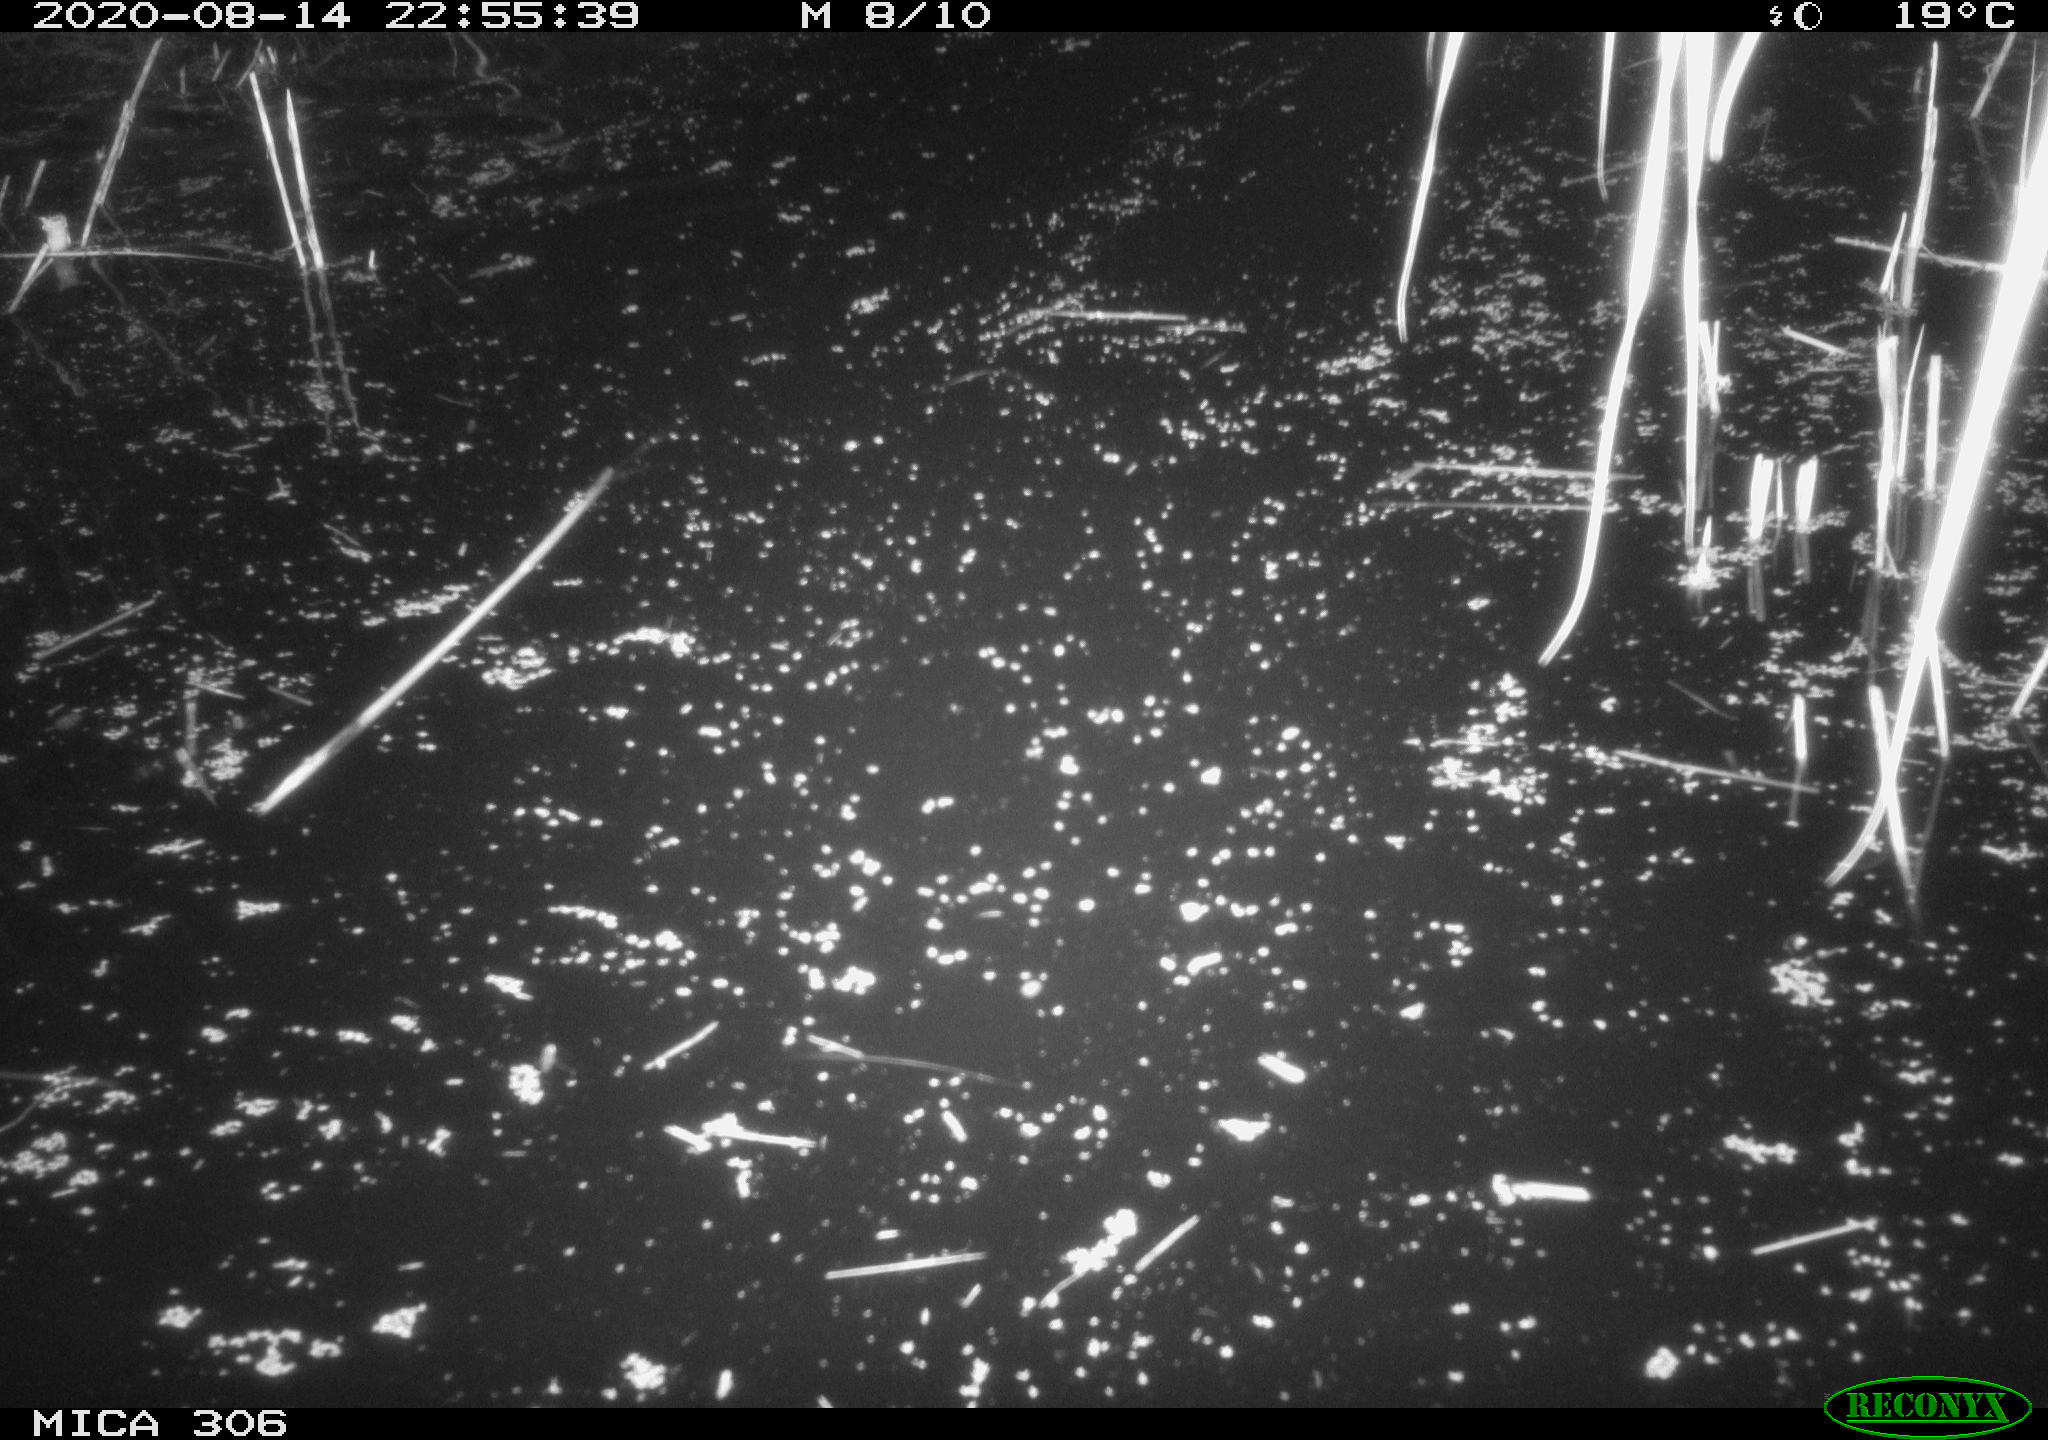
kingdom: Animalia
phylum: Chordata
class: Mammalia
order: Rodentia
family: Muridae
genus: Rattus
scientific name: Rattus norvegicus
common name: Brown rat
